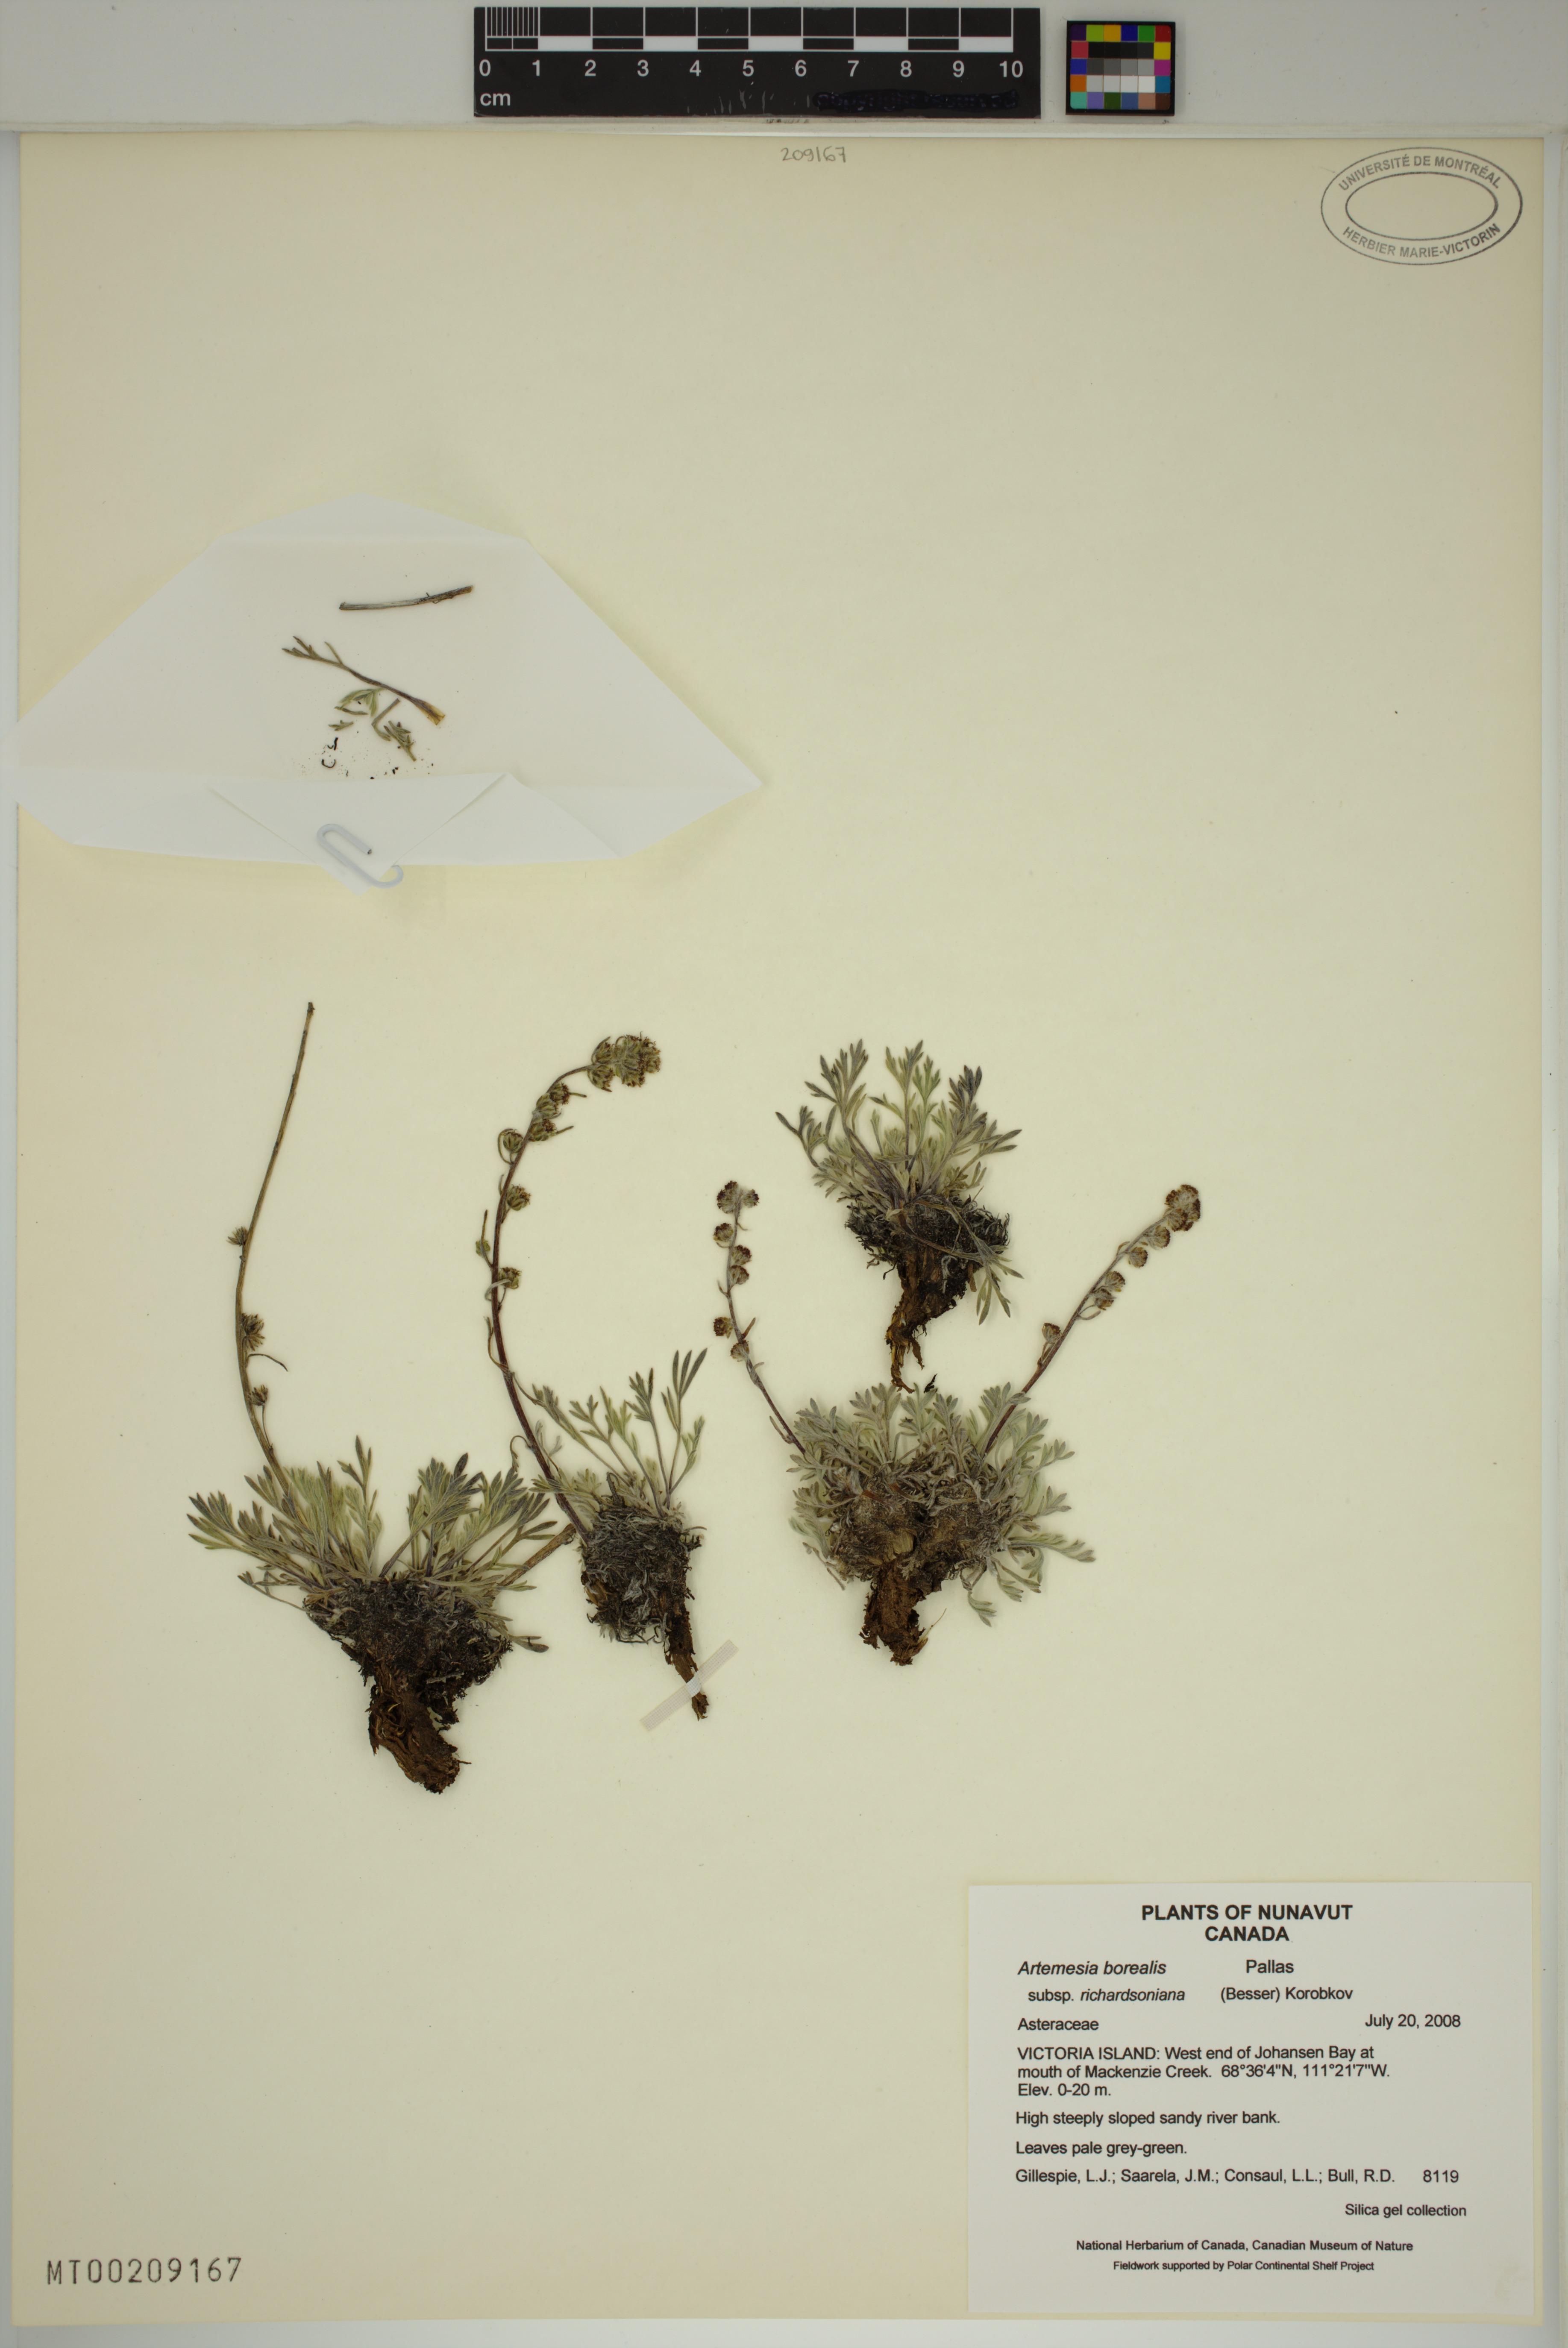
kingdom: Plantae
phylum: Tracheophyta
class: Magnoliopsida
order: Asterales
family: Asteraceae
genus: Artemisia
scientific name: Artemisia borealis
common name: Boreal sage
